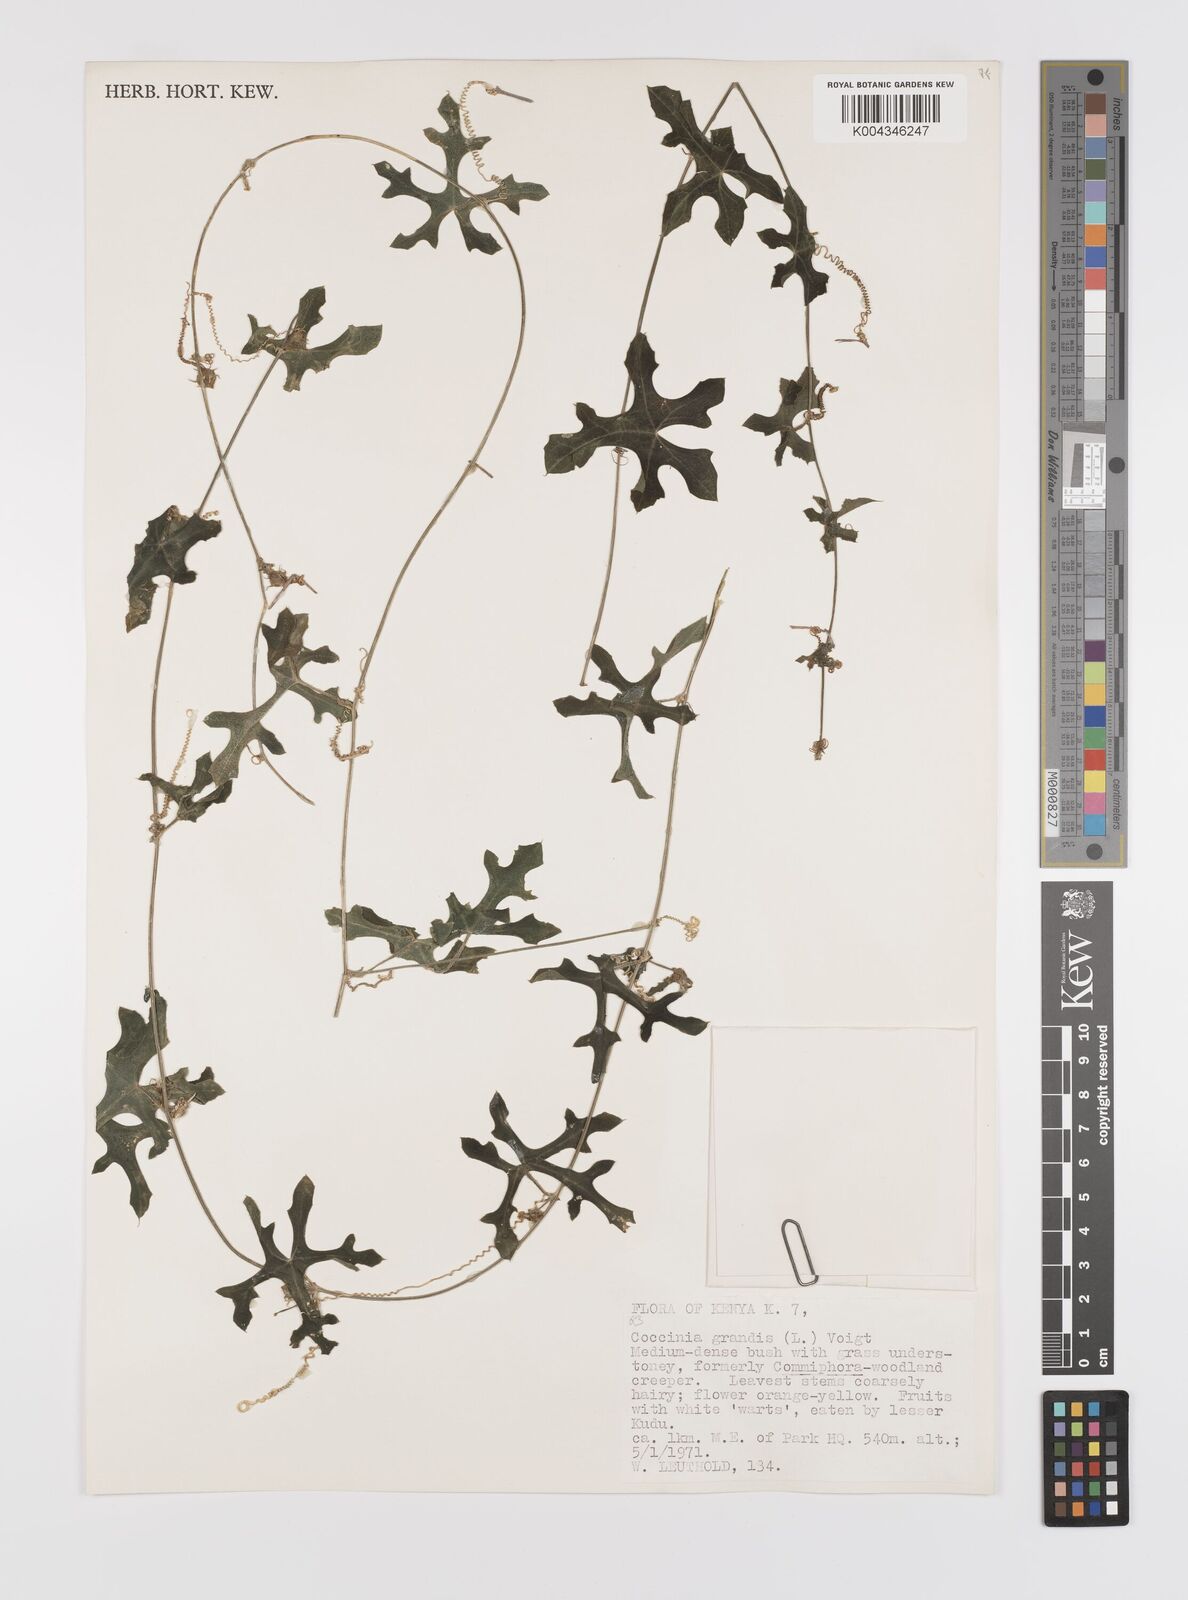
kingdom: Plantae
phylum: Tracheophyta
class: Magnoliopsida
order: Cucurbitales
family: Cucurbitaceae
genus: Coccinia
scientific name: Coccinia grandis
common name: Ivy gourd
